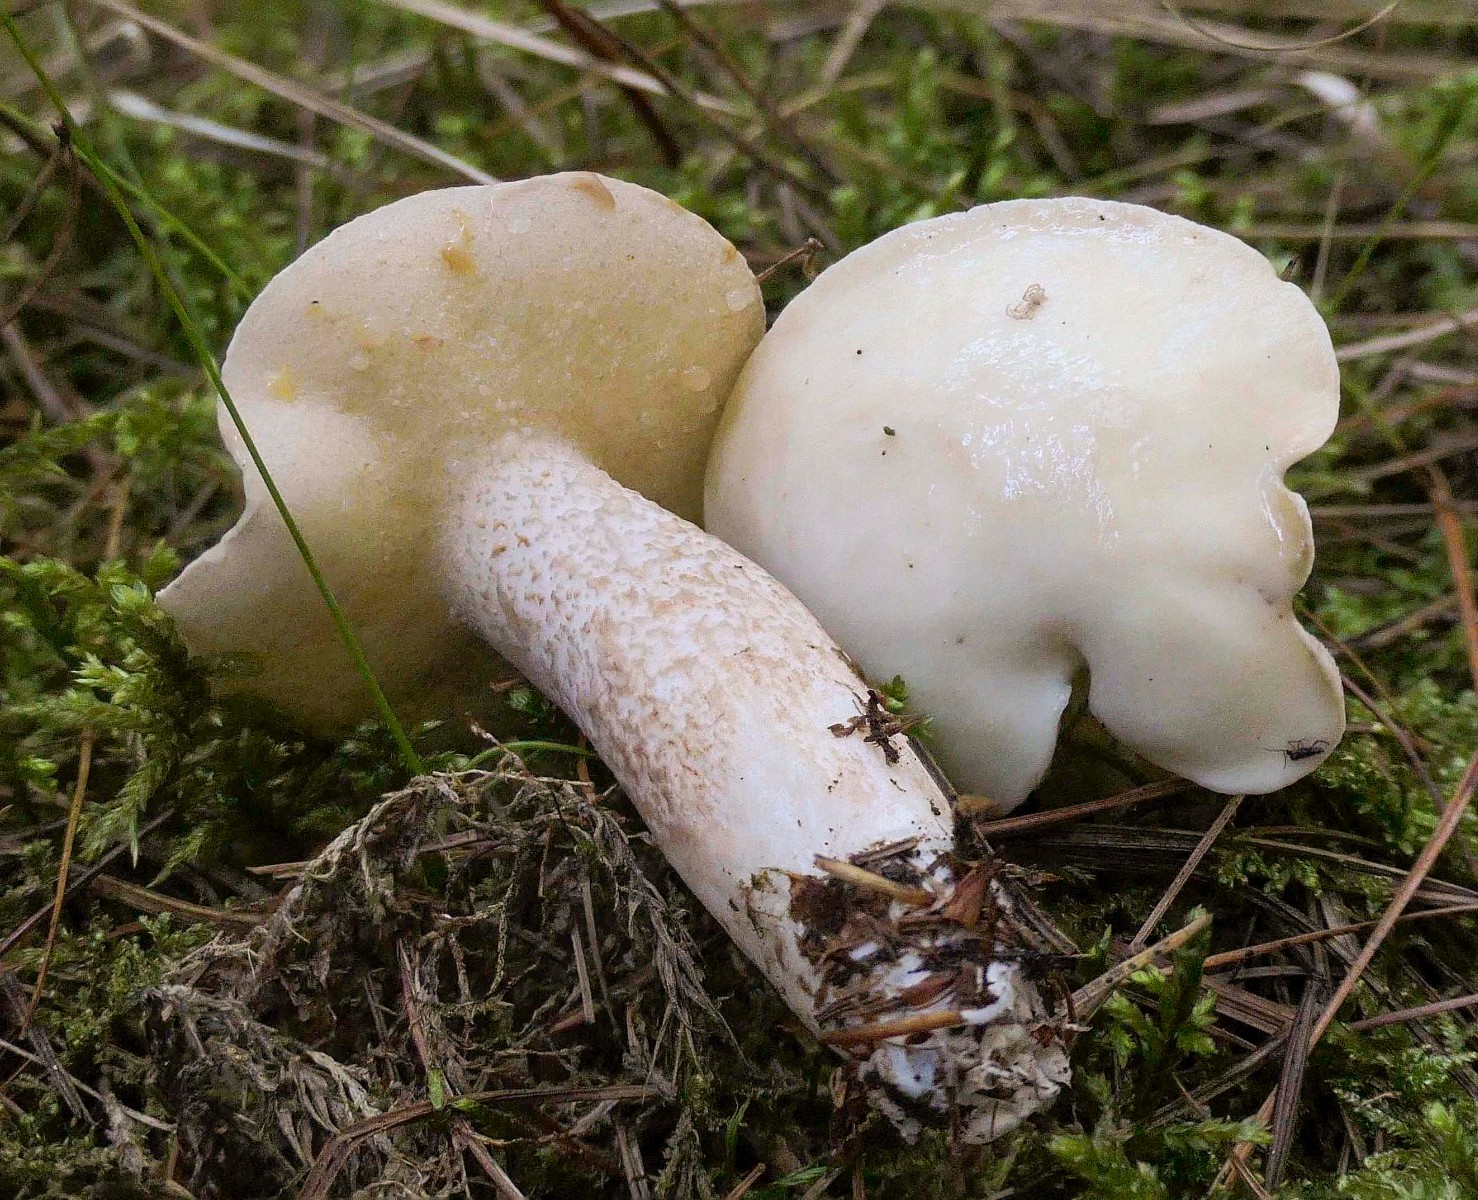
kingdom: Fungi
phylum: Basidiomycota
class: Agaricomycetes
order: Boletales
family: Suillaceae
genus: Suillus
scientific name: Suillus placidus
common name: elfenbens-slimrørhat
